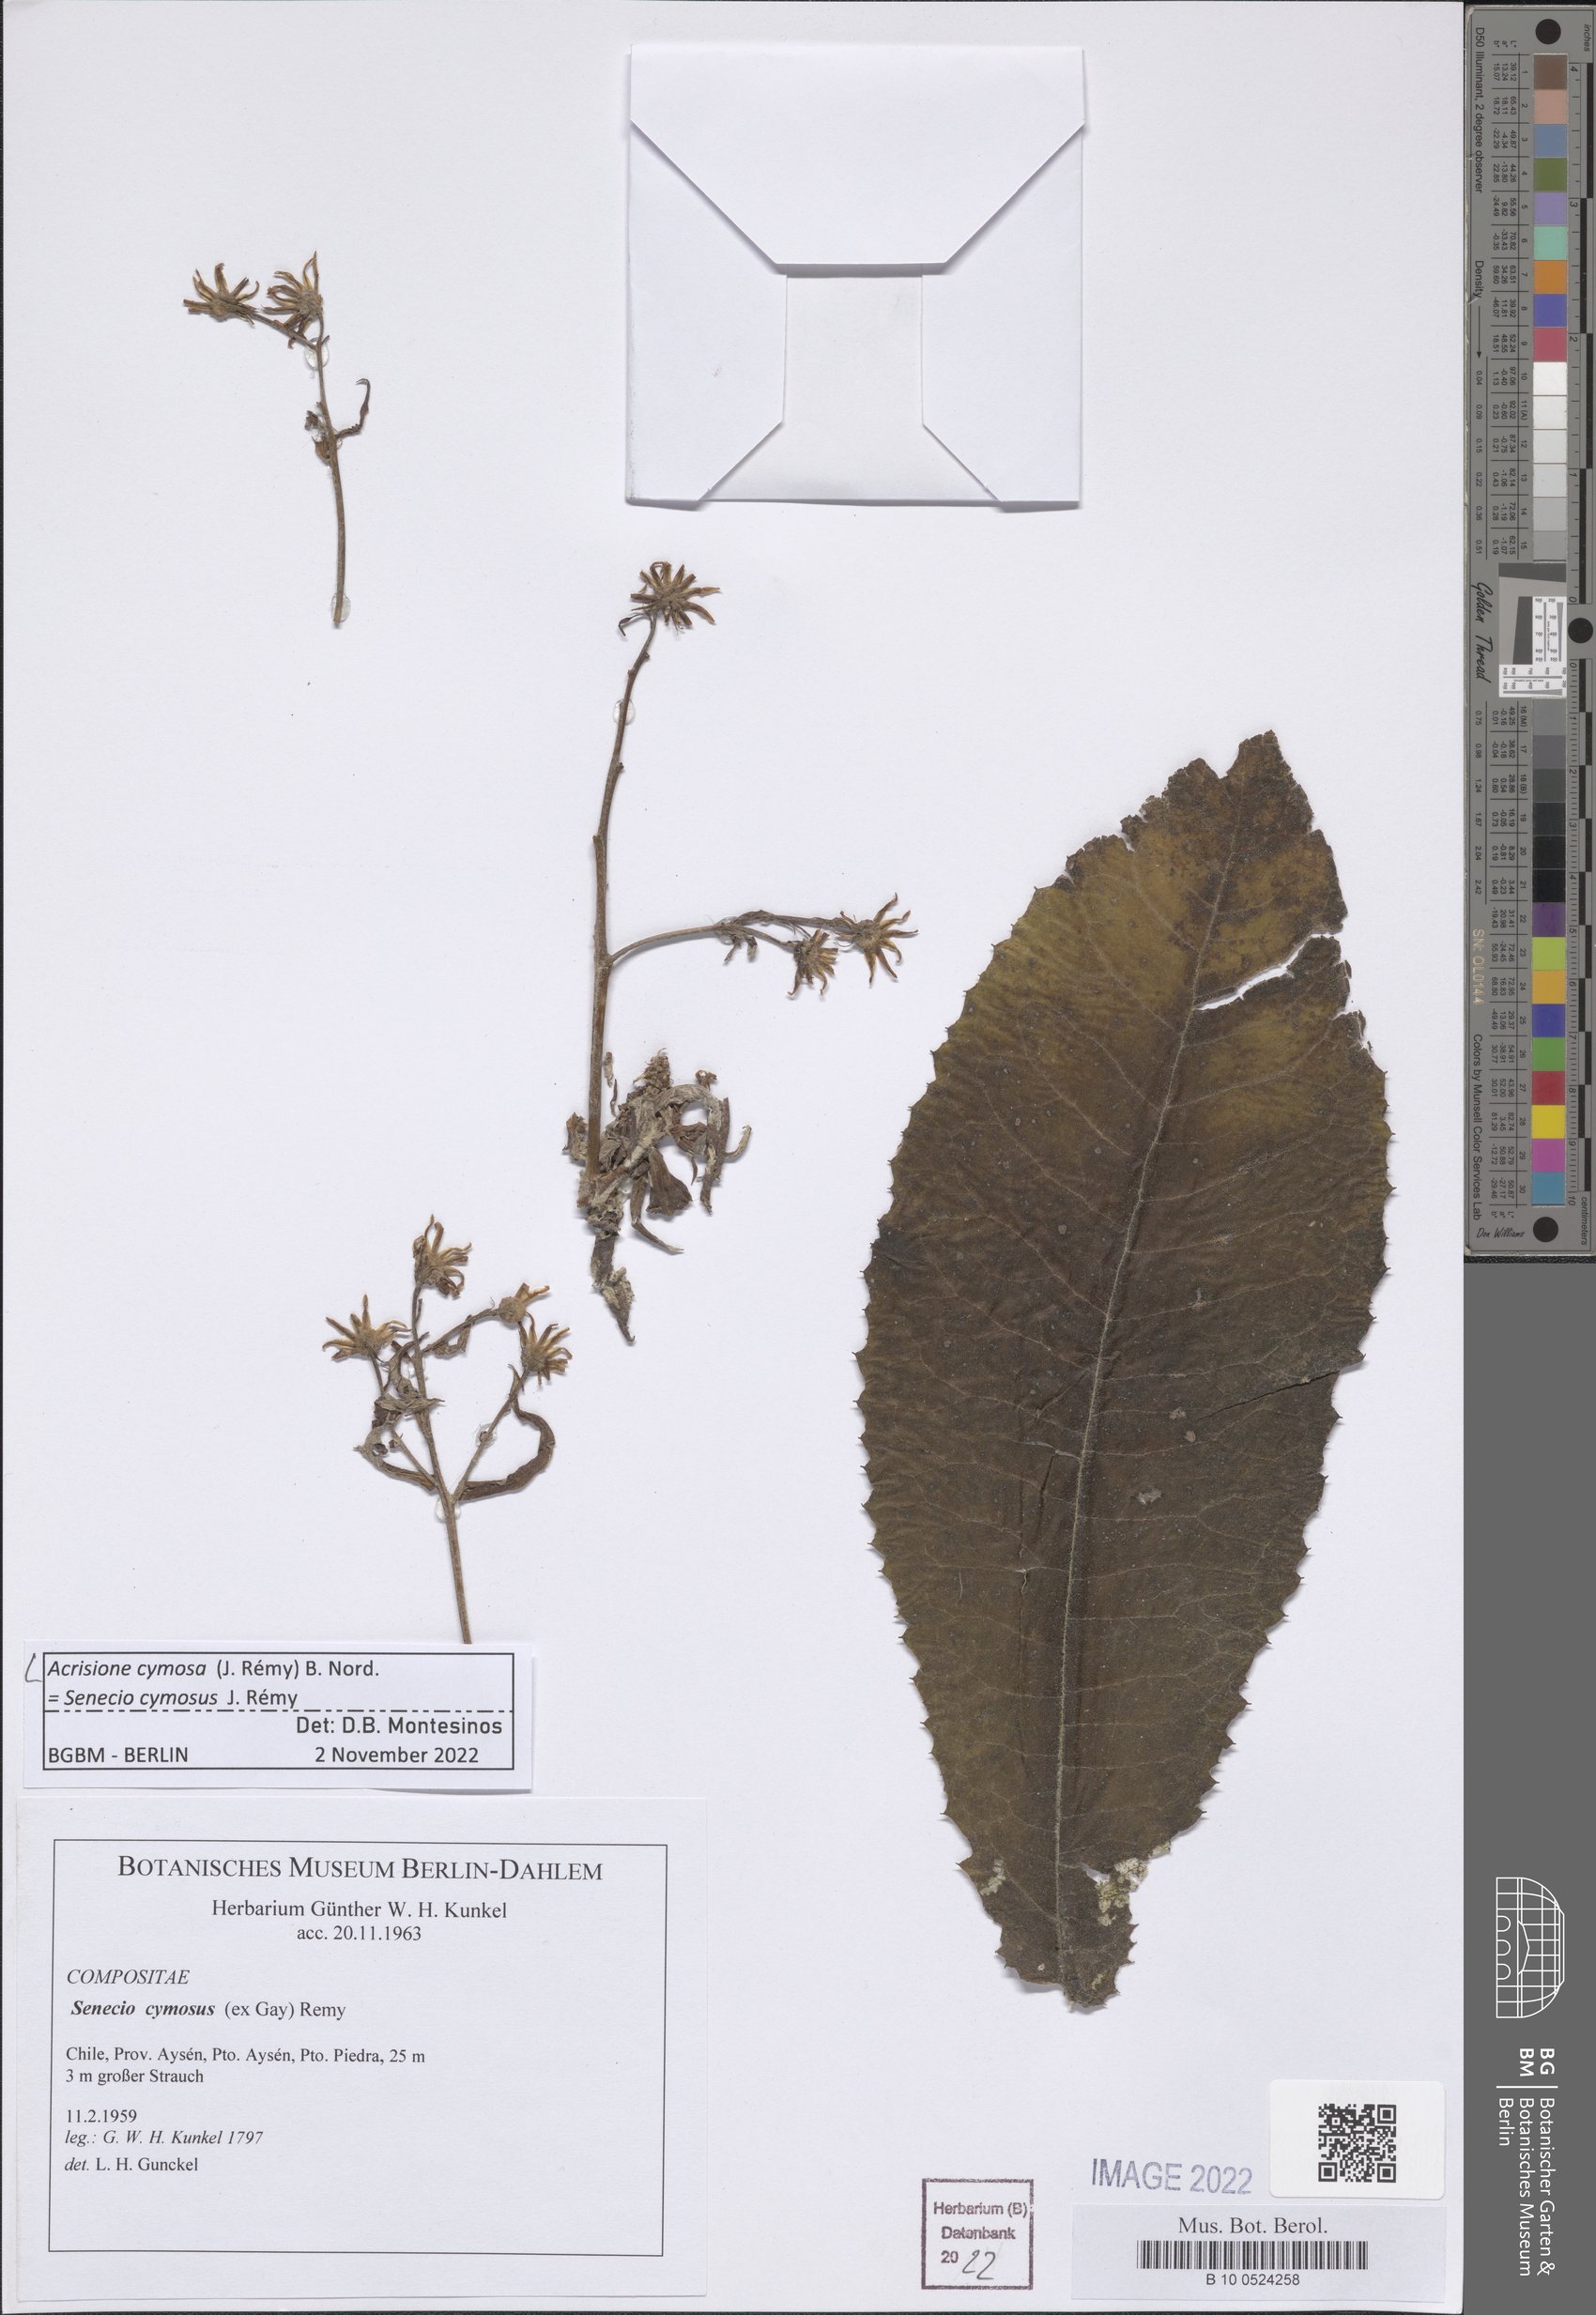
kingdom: Plantae
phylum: Tracheophyta
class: Magnoliopsida
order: Asterales
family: Asteraceae
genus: Acrisione
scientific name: Acrisione cymosa
